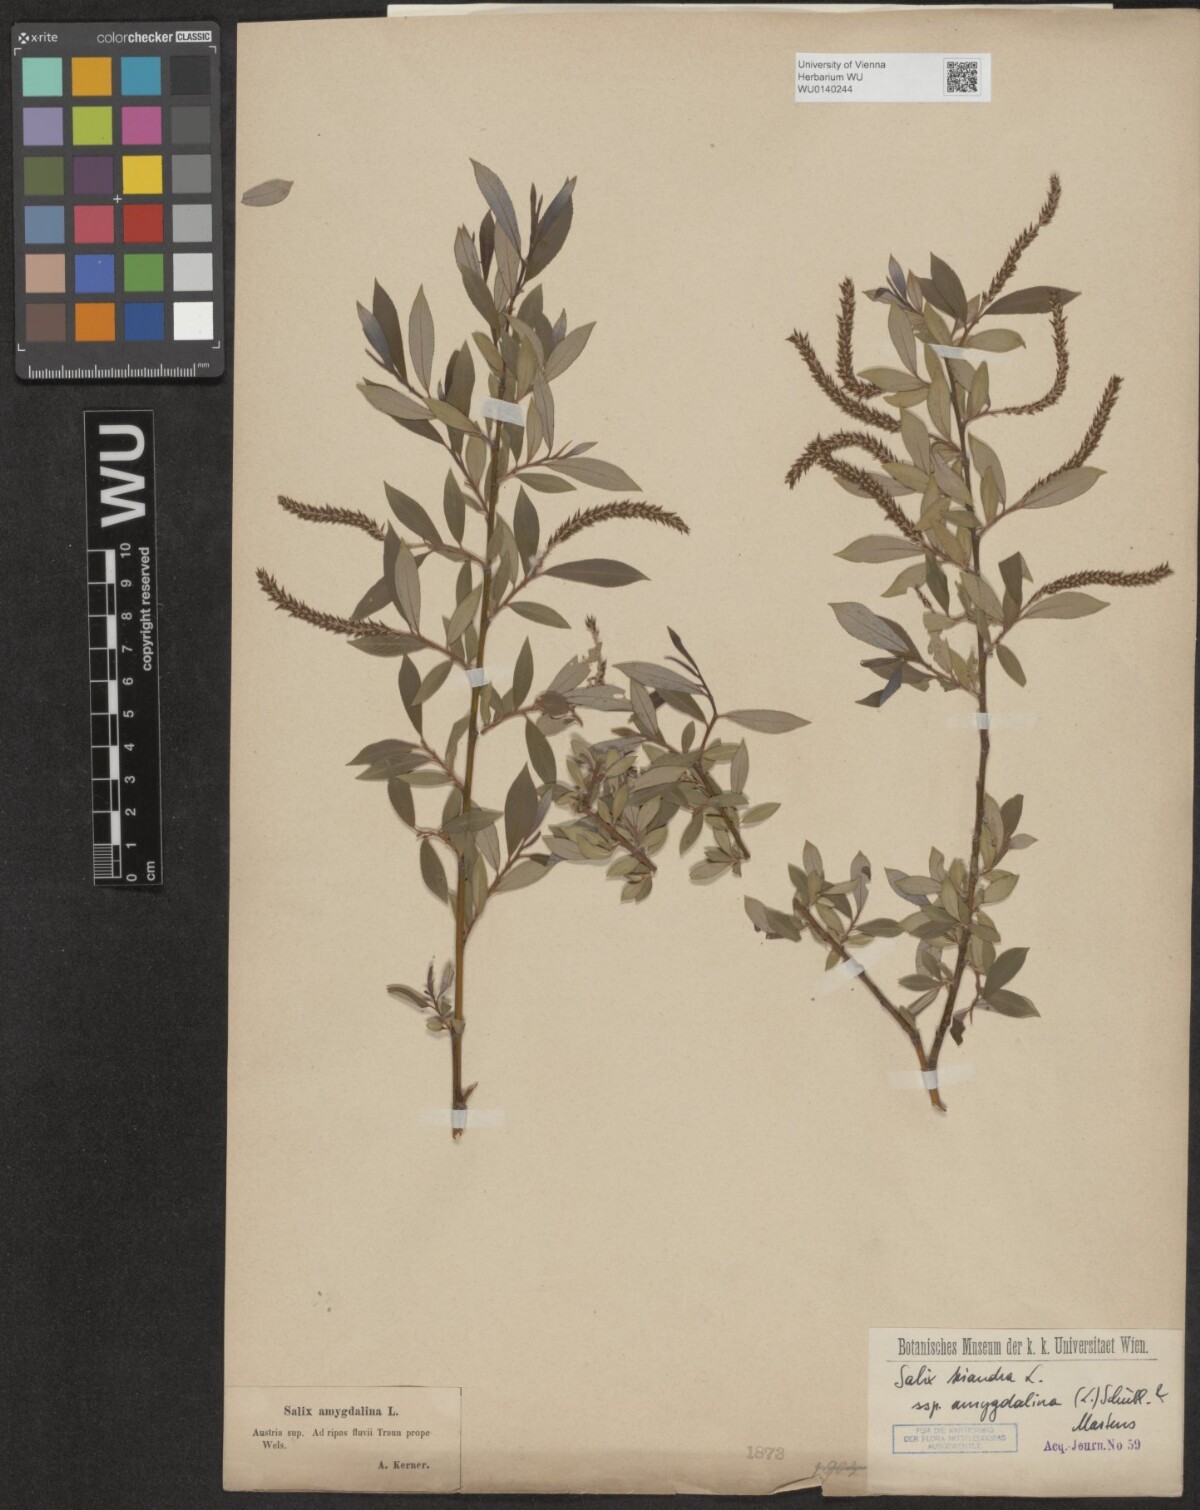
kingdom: Plantae
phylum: Tracheophyta
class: Magnoliopsida
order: Malpighiales
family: Salicaceae
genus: Salix
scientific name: Salix triandra
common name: Almond willow
